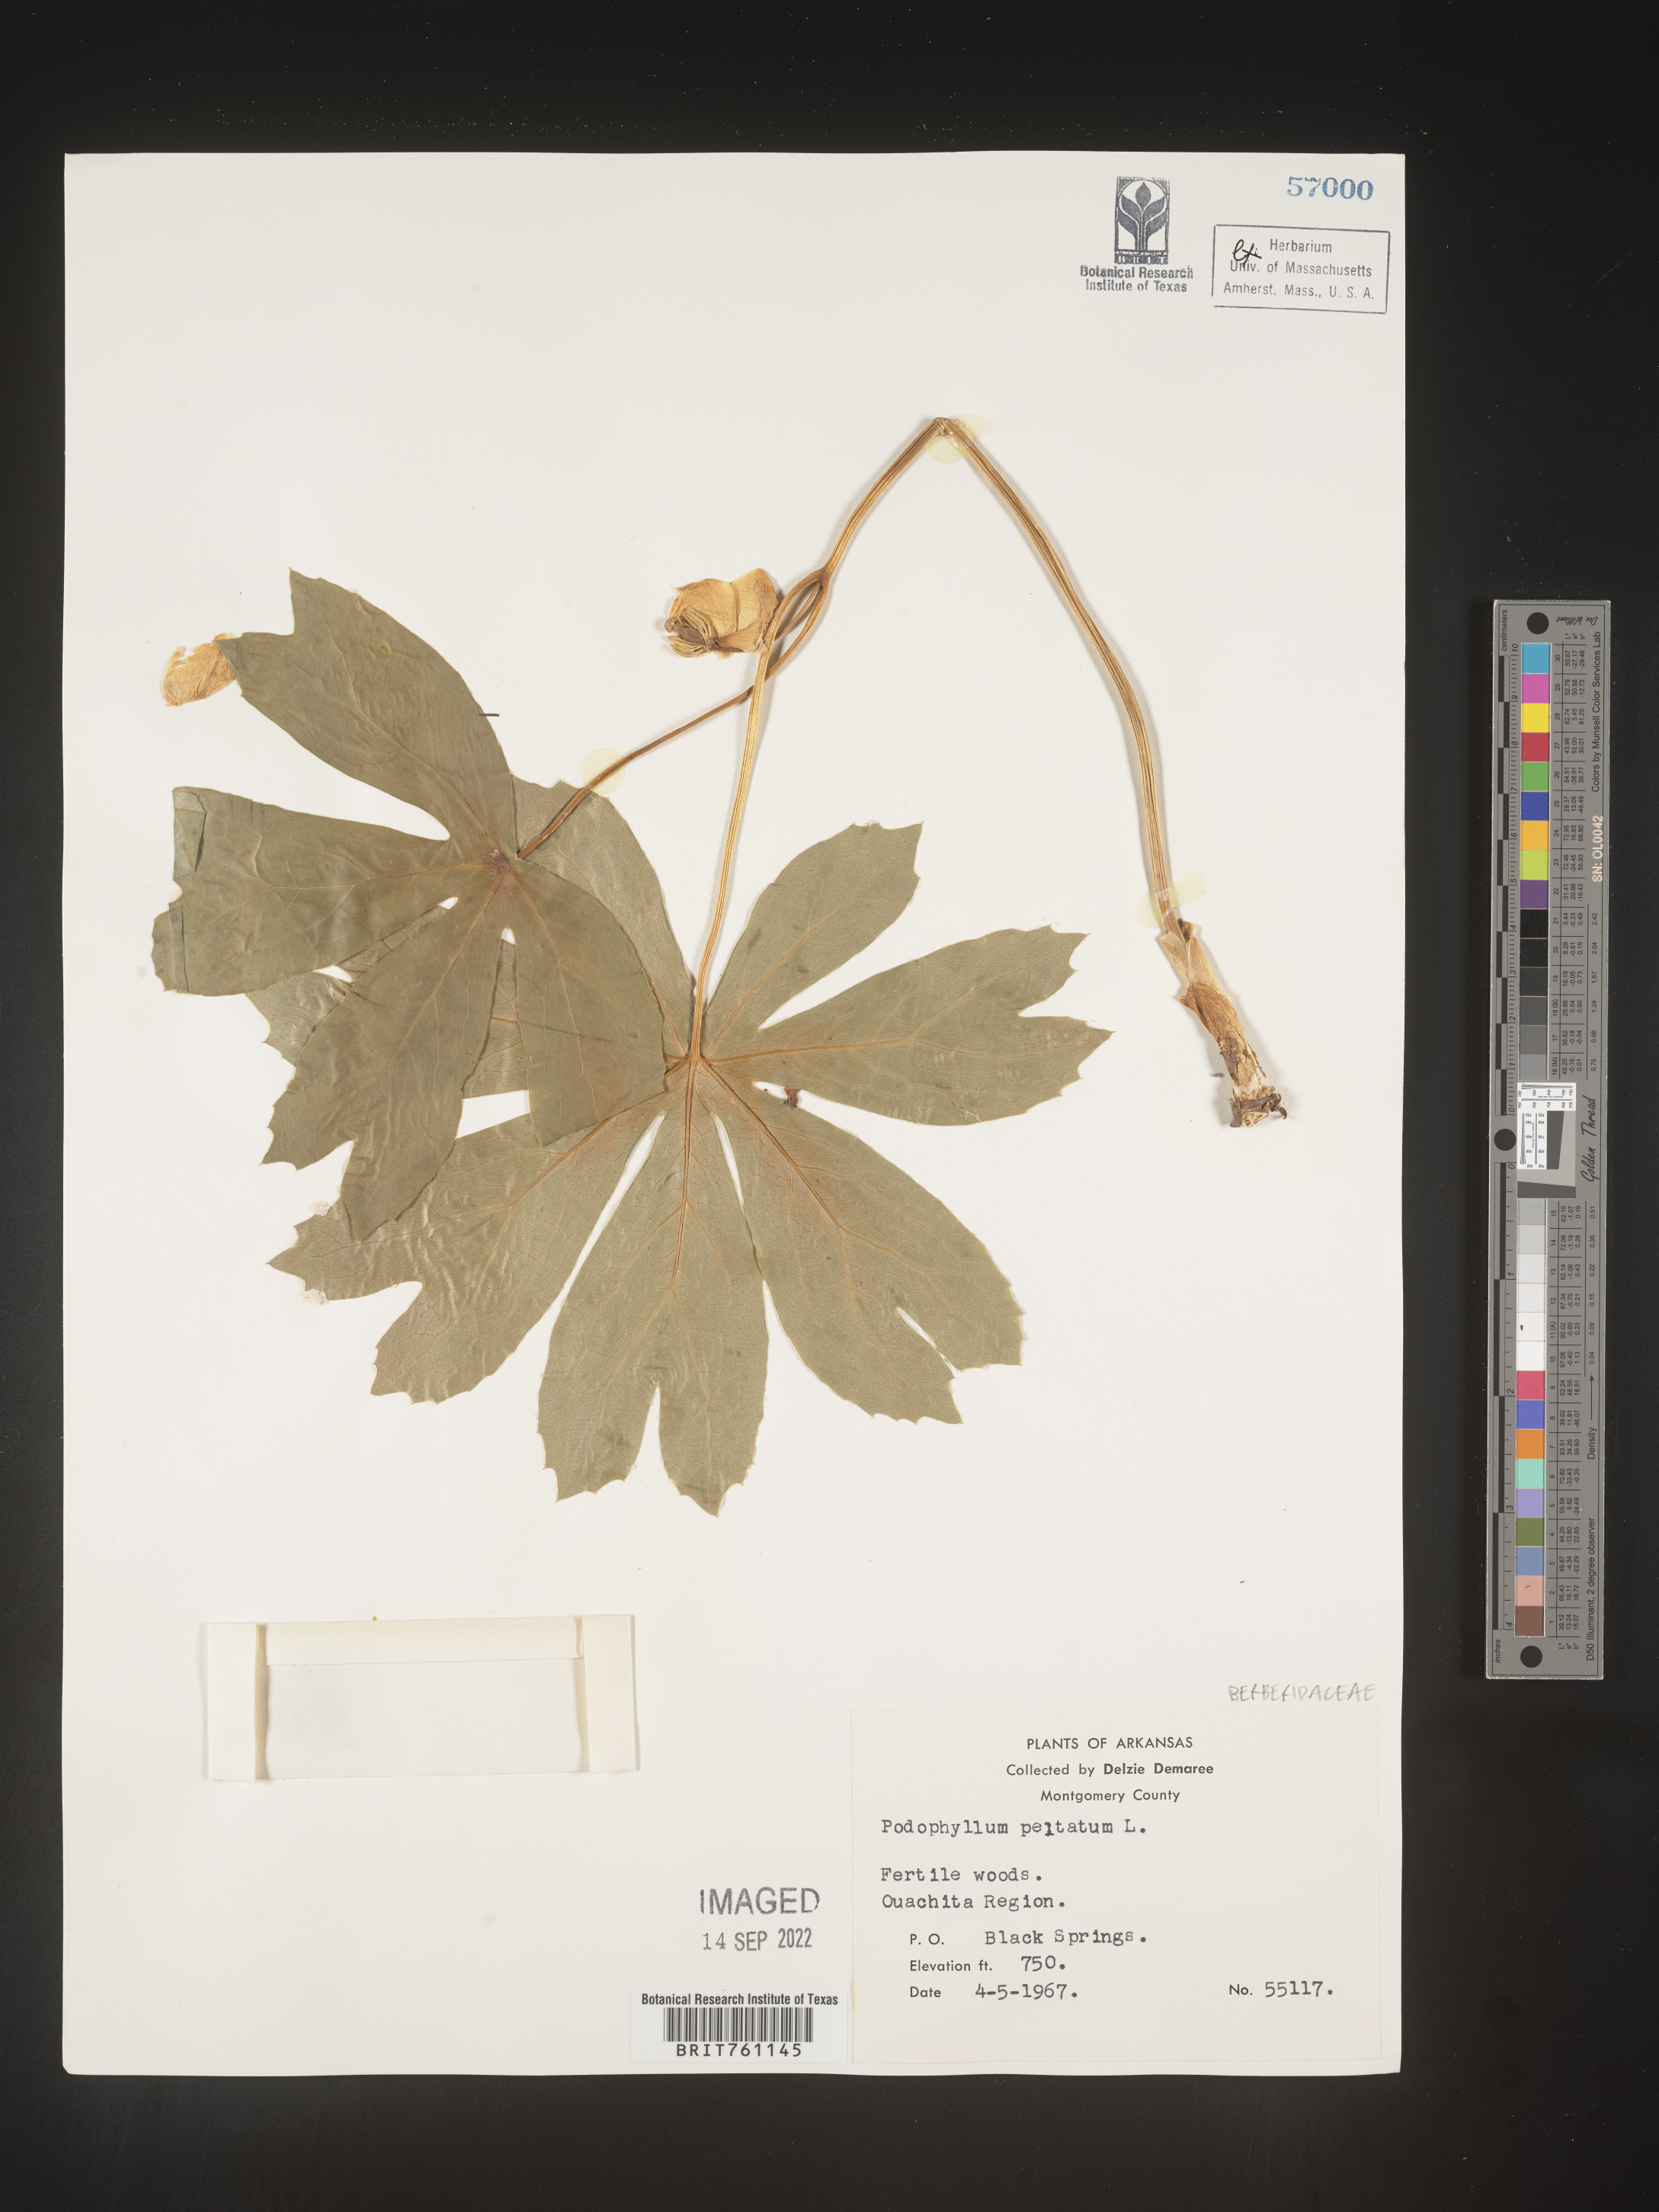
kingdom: Plantae
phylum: Tracheophyta
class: Magnoliopsida
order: Ranunculales
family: Berberidaceae
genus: Podophyllum
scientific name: Podophyllum peltatum
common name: Wild mandrake
